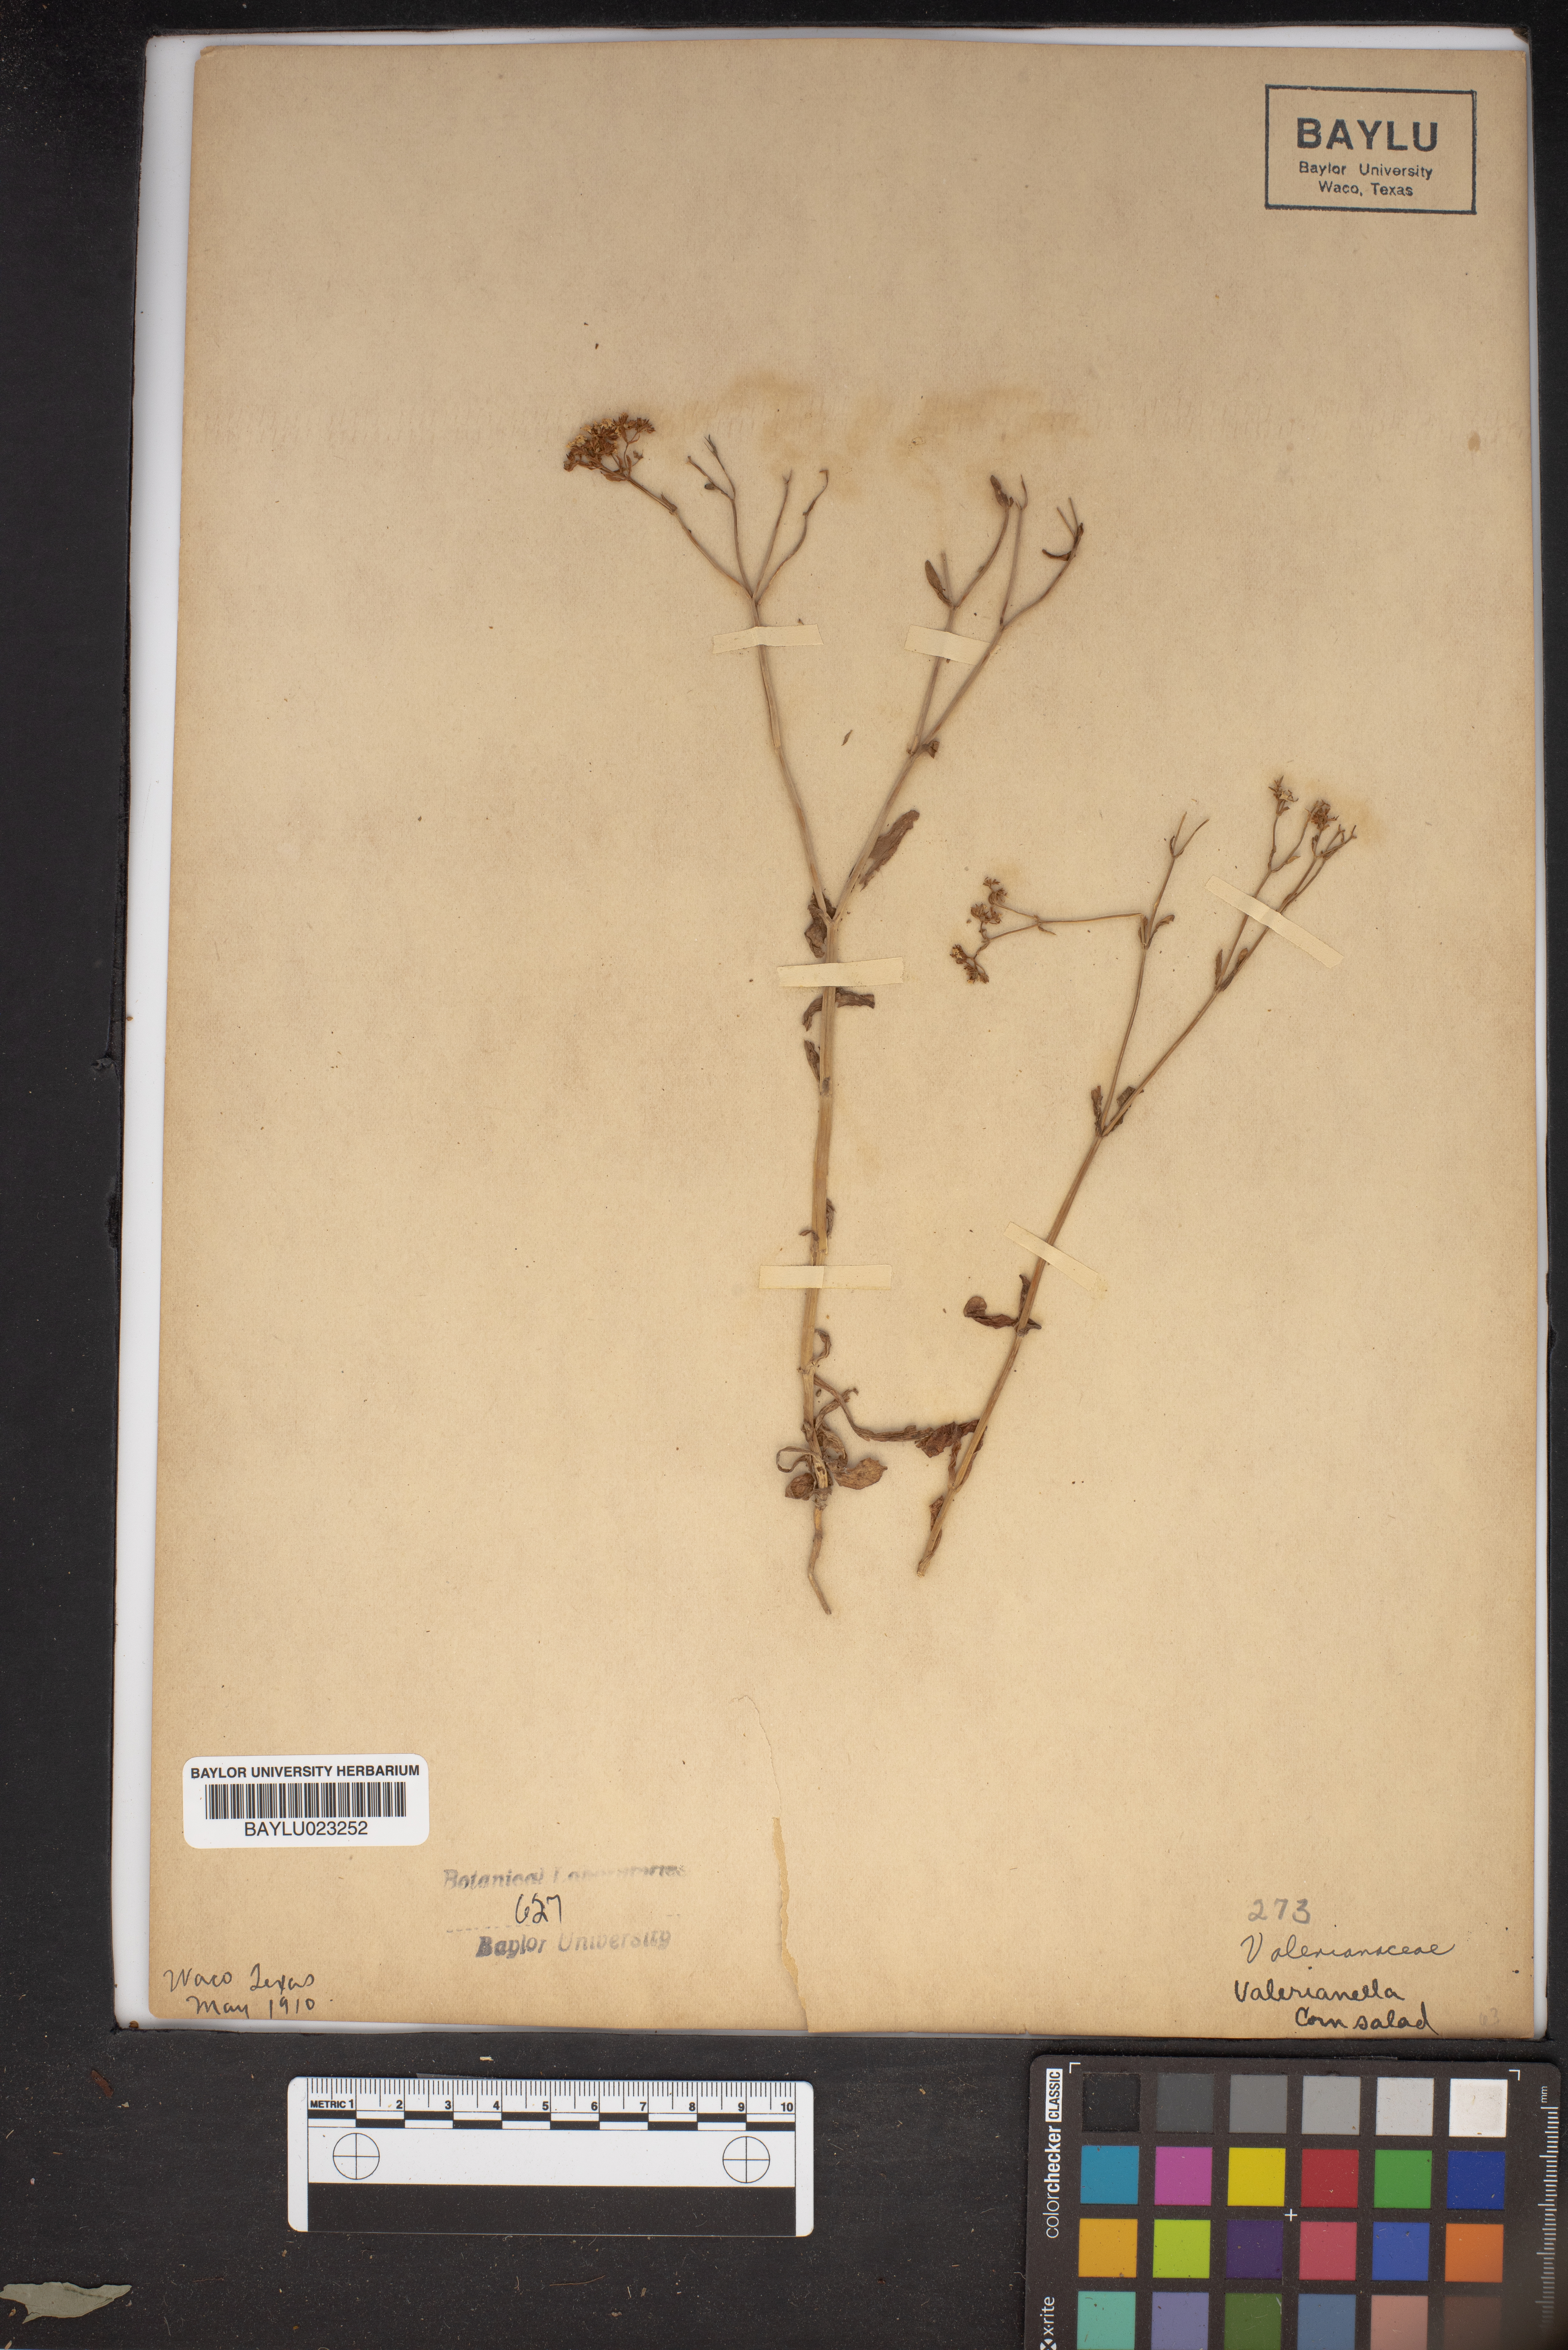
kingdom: Plantae
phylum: Tracheophyta
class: Magnoliopsida
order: Dipsacales
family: Caprifoliaceae
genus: Valerianella
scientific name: Valerianella
